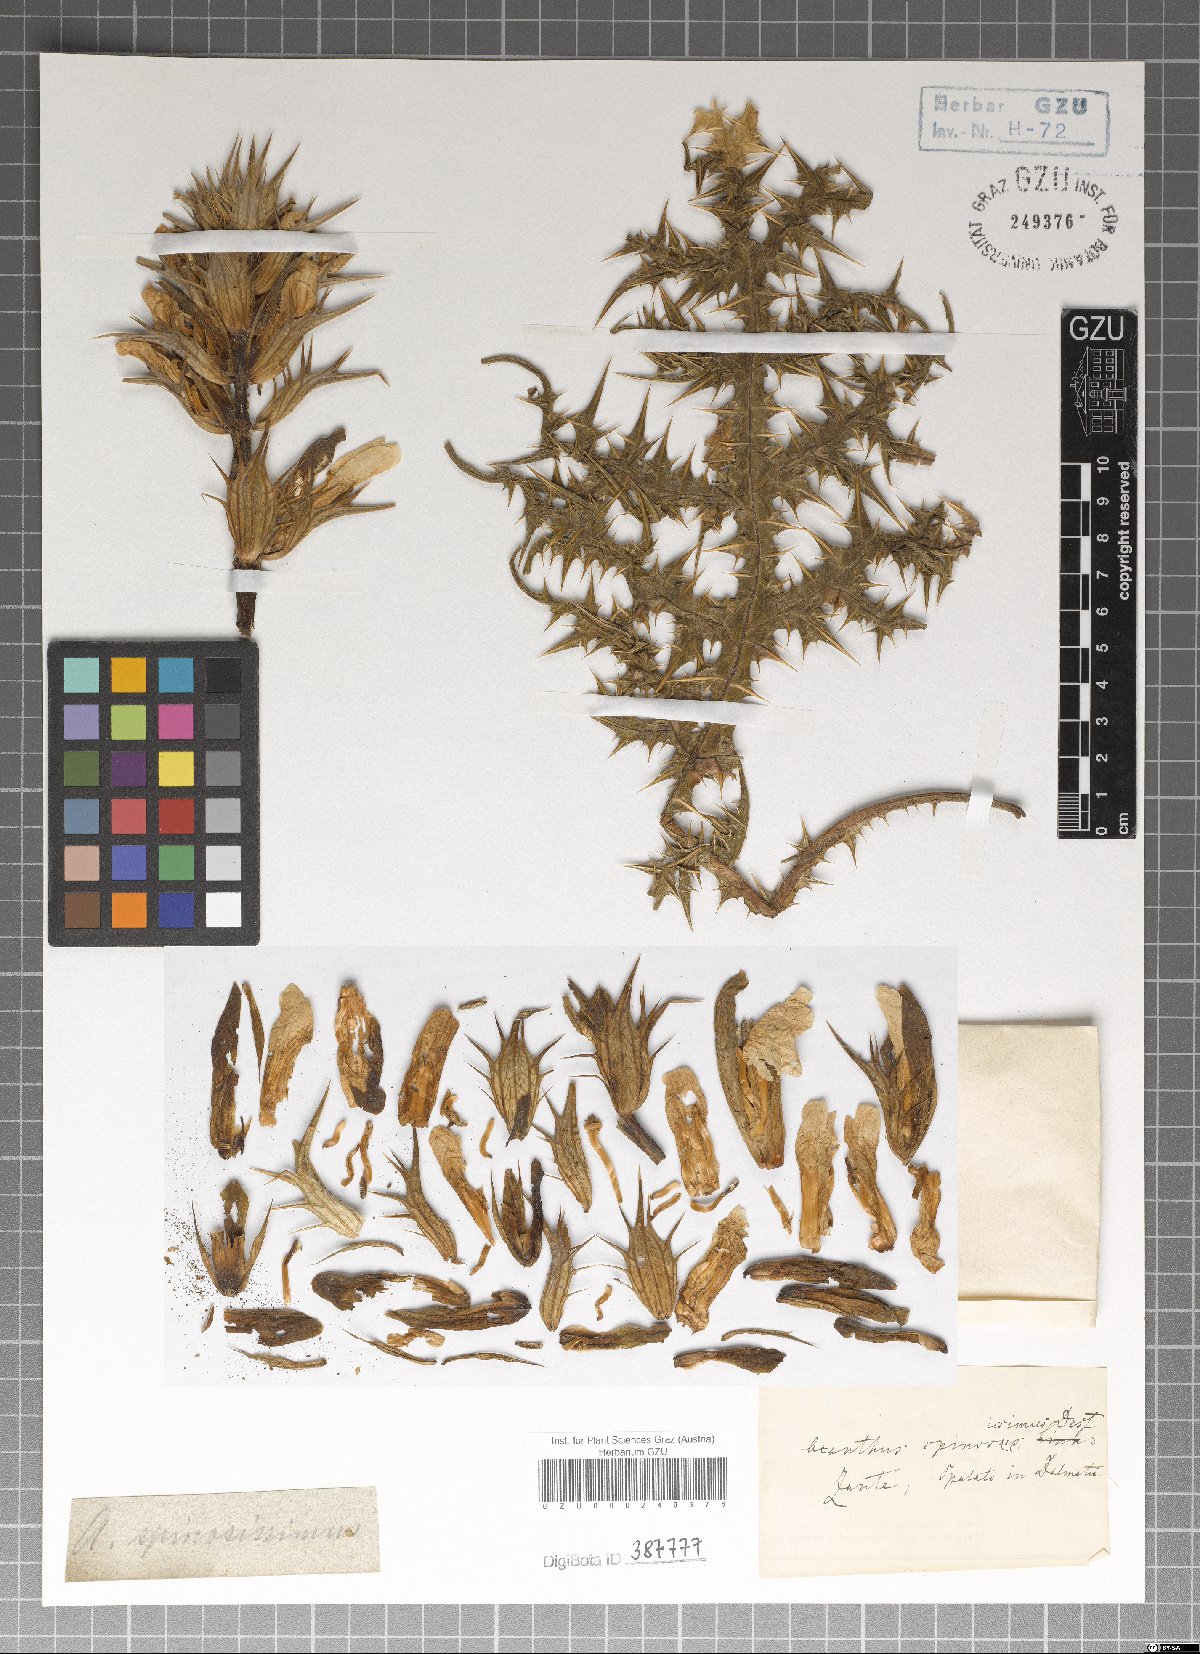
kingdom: Plantae
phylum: Tracheophyta
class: Magnoliopsida
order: Lamiales
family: Acanthaceae
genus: Acanthus
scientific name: Acanthus spinosus
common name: Spiny bear's-breech
